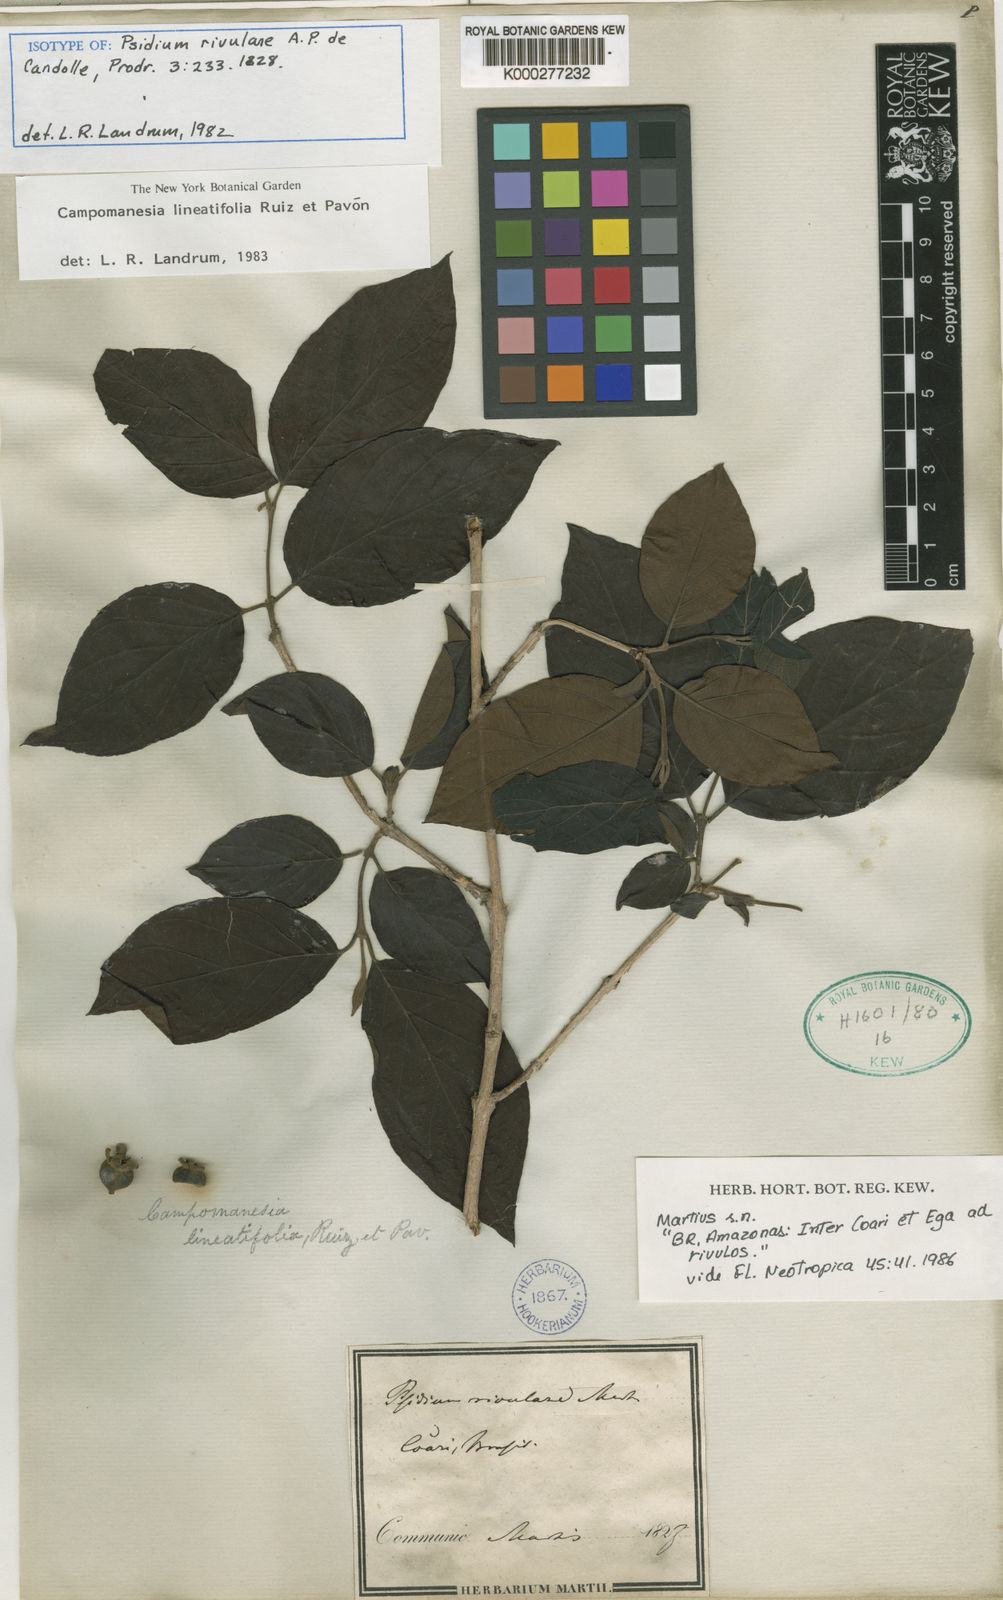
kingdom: Plantae
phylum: Tracheophyta
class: Magnoliopsida
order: Myrtales
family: Myrtaceae
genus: Campomanesia
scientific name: Campomanesia lineatifolia
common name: Perfume guava
